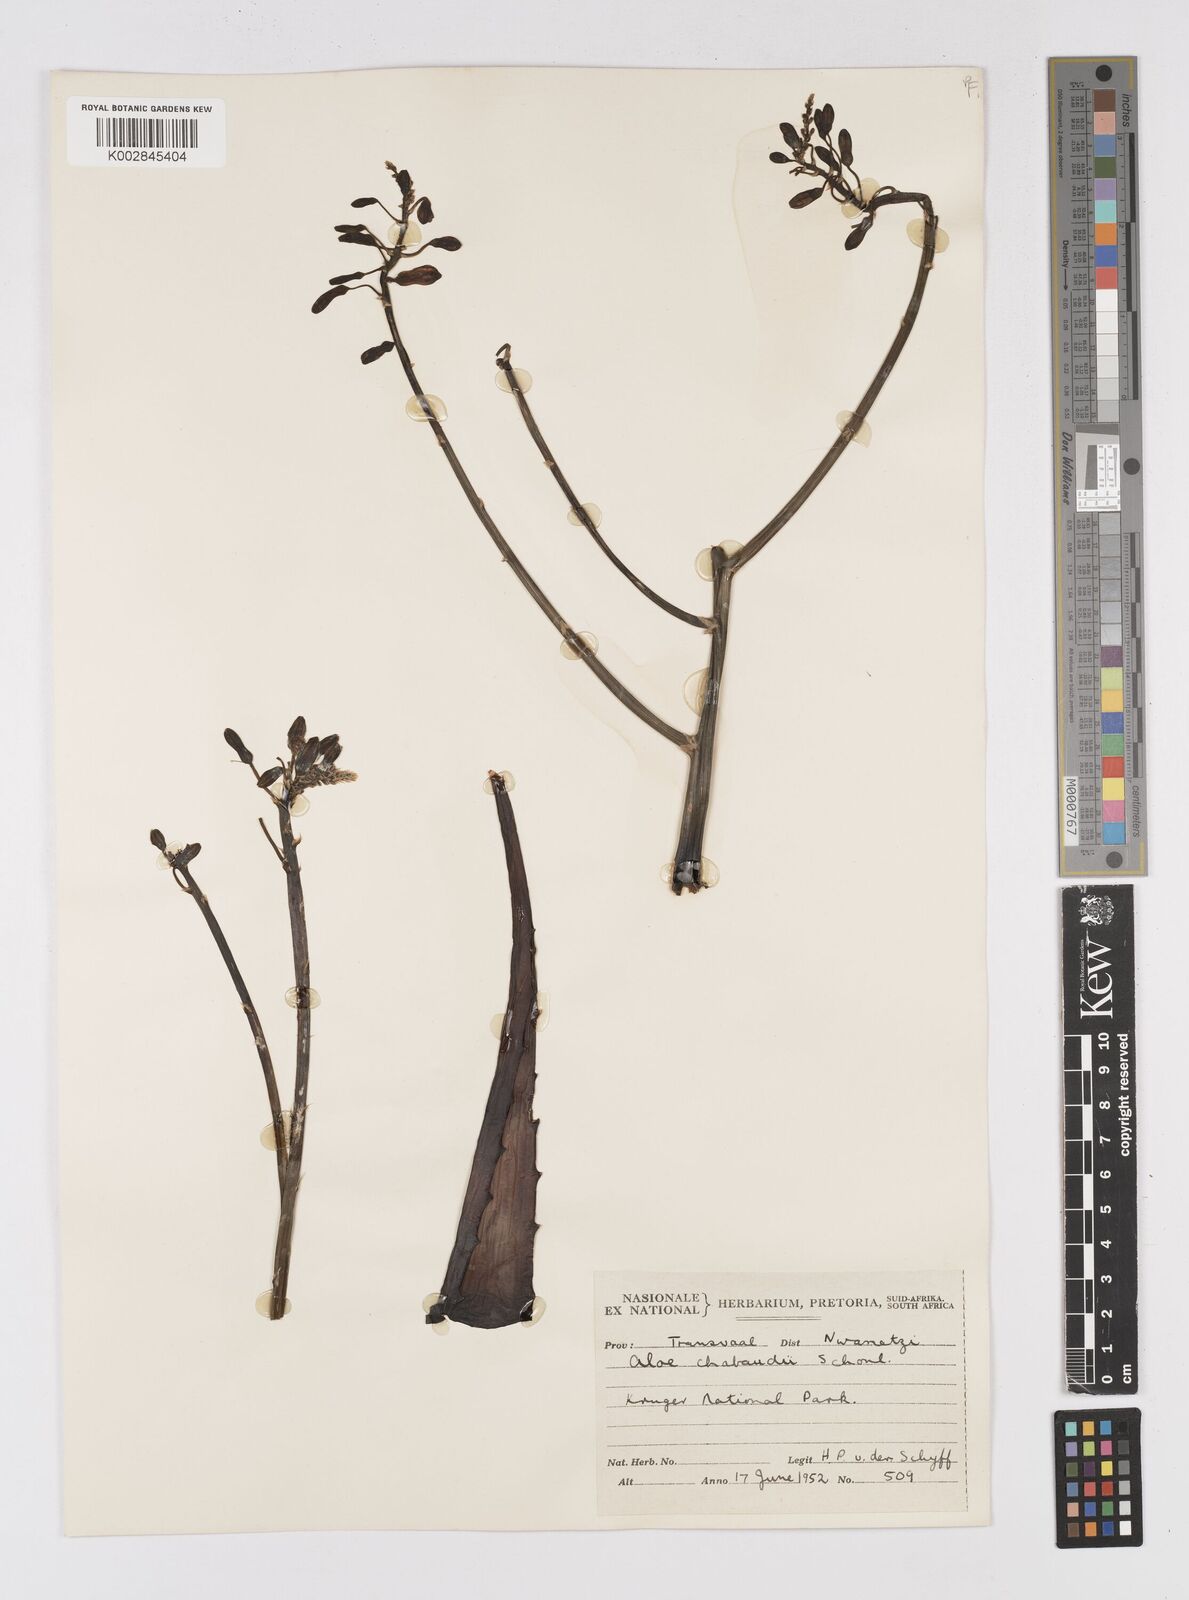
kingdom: Plantae
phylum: Tracheophyta
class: Liliopsida
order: Asparagales
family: Asphodelaceae
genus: Aloe
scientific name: Aloe chabaudii
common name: Chabaud's aloe
